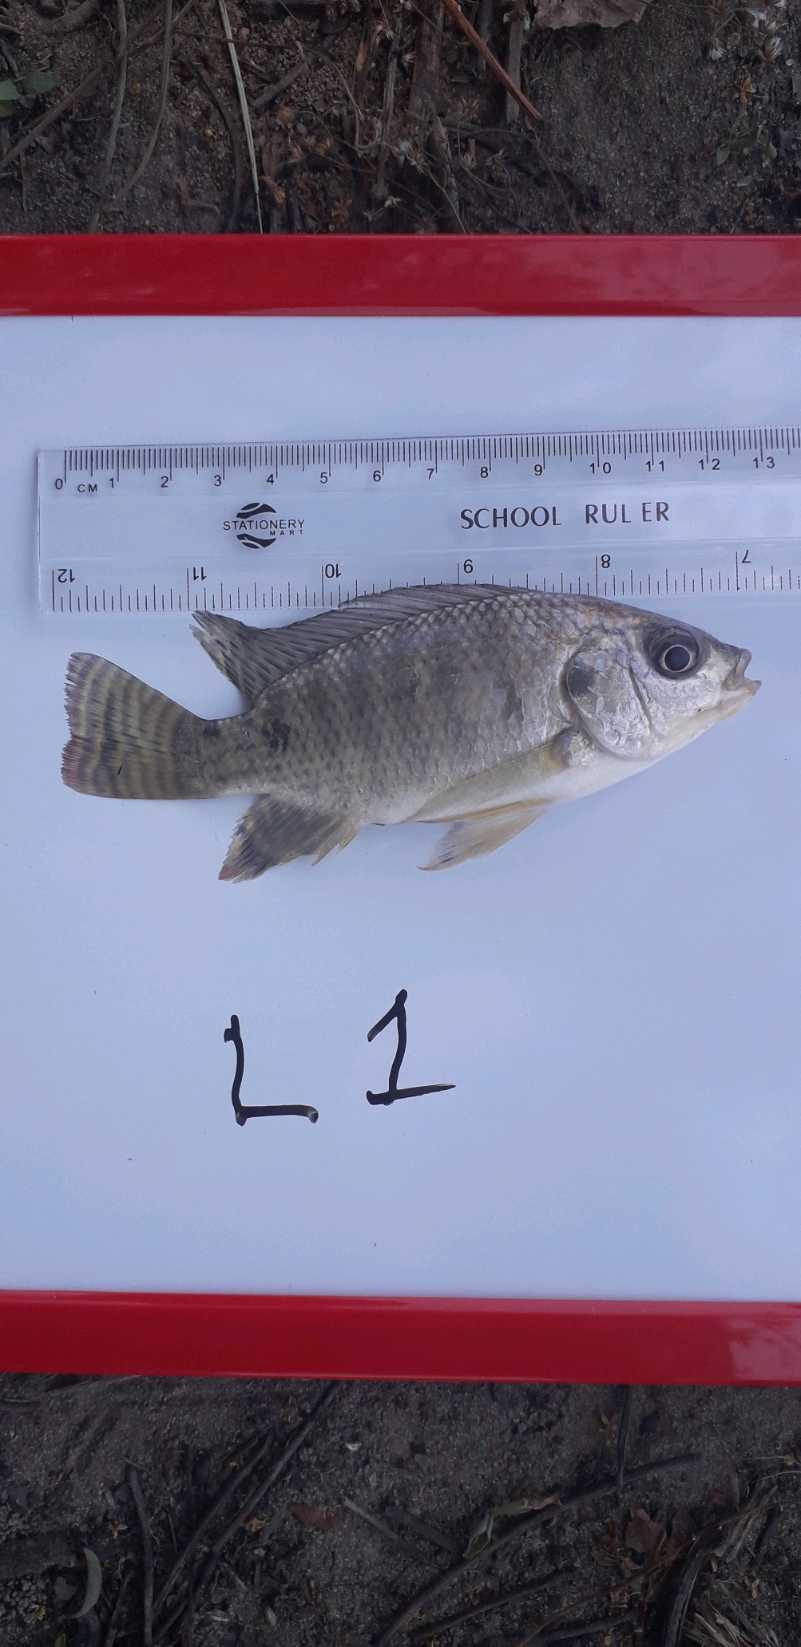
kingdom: Animalia
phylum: Chordata
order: Perciformes
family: Cichlidae
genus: Oreochromis
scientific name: Oreochromis niloticus
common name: Nile tilapia
